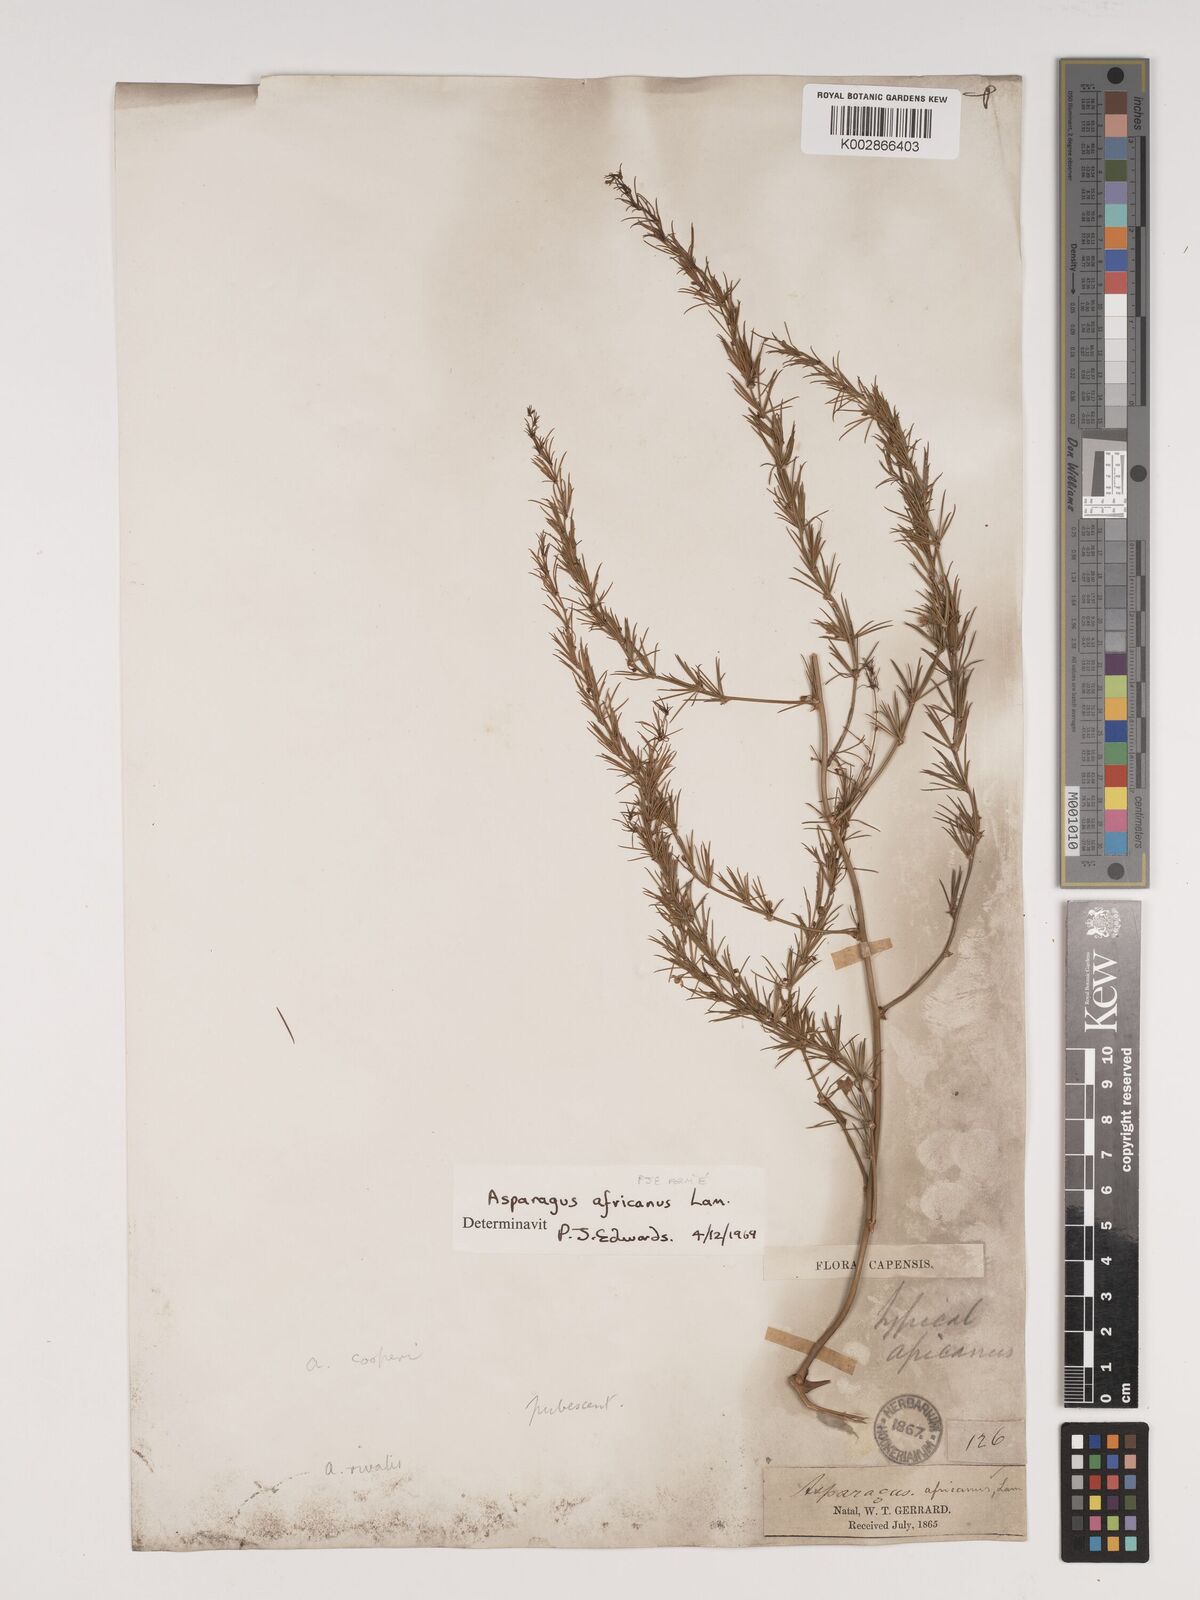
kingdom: Plantae
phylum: Tracheophyta
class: Liliopsida
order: Asparagales
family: Asparagaceae
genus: Asparagus
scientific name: Asparagus africanus
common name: Asparagus-fern
